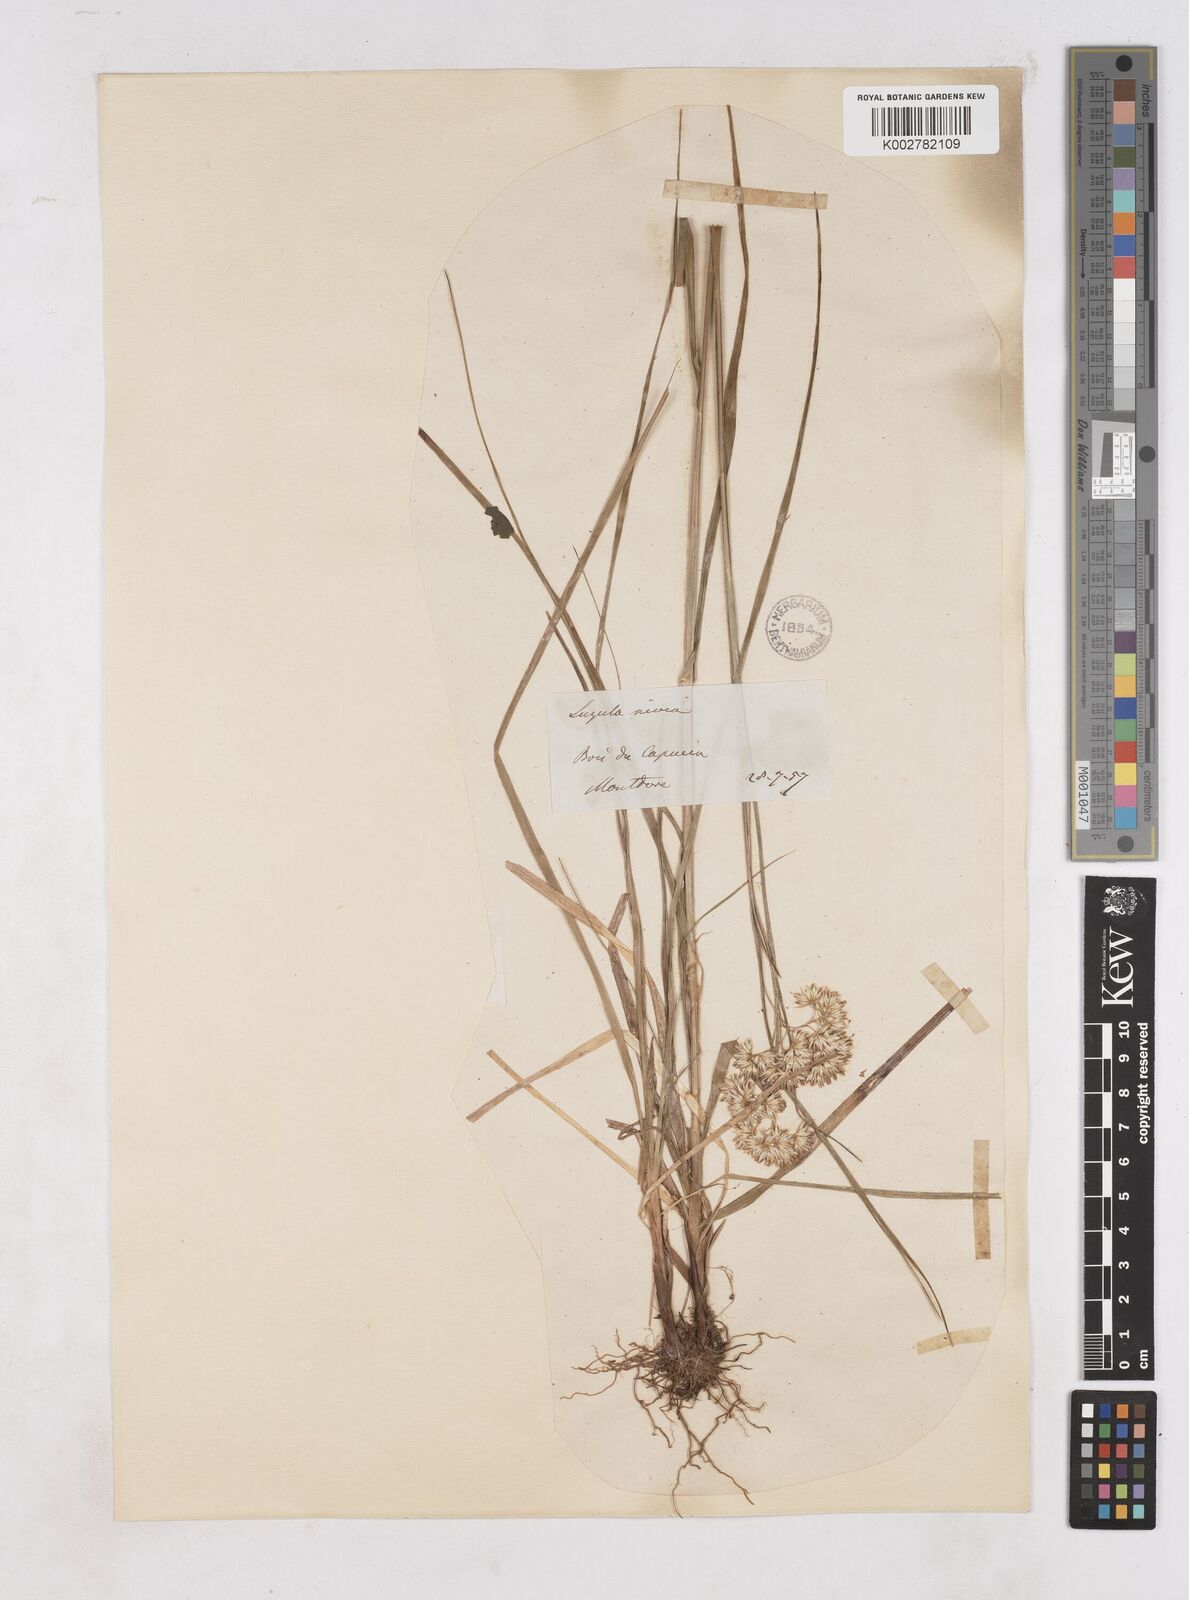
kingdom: Plantae
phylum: Tracheophyta
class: Liliopsida
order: Poales
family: Juncaceae
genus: Luzula
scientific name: Luzula nivea
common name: Snow-white wood-rush
